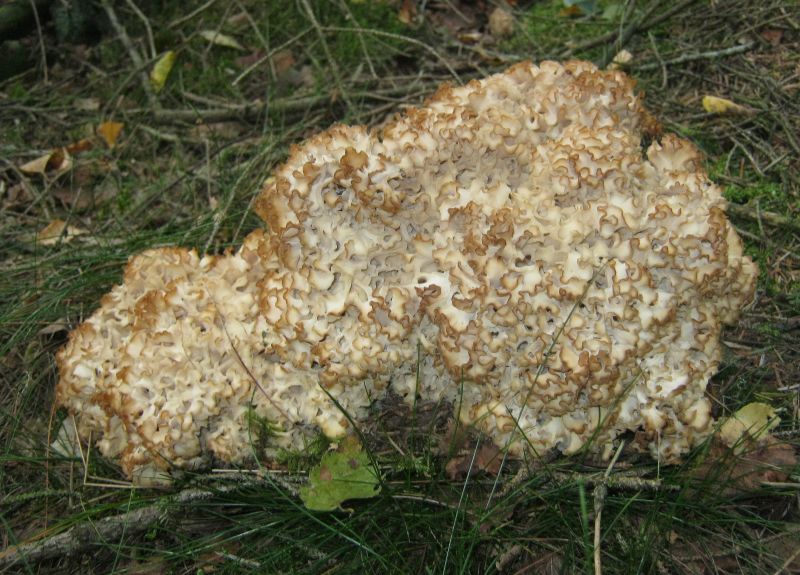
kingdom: Fungi
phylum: Basidiomycota
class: Agaricomycetes
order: Polyporales
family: Sparassidaceae
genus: Sparassis
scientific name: Sparassis crispa
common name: kruset blomkålssvamp
